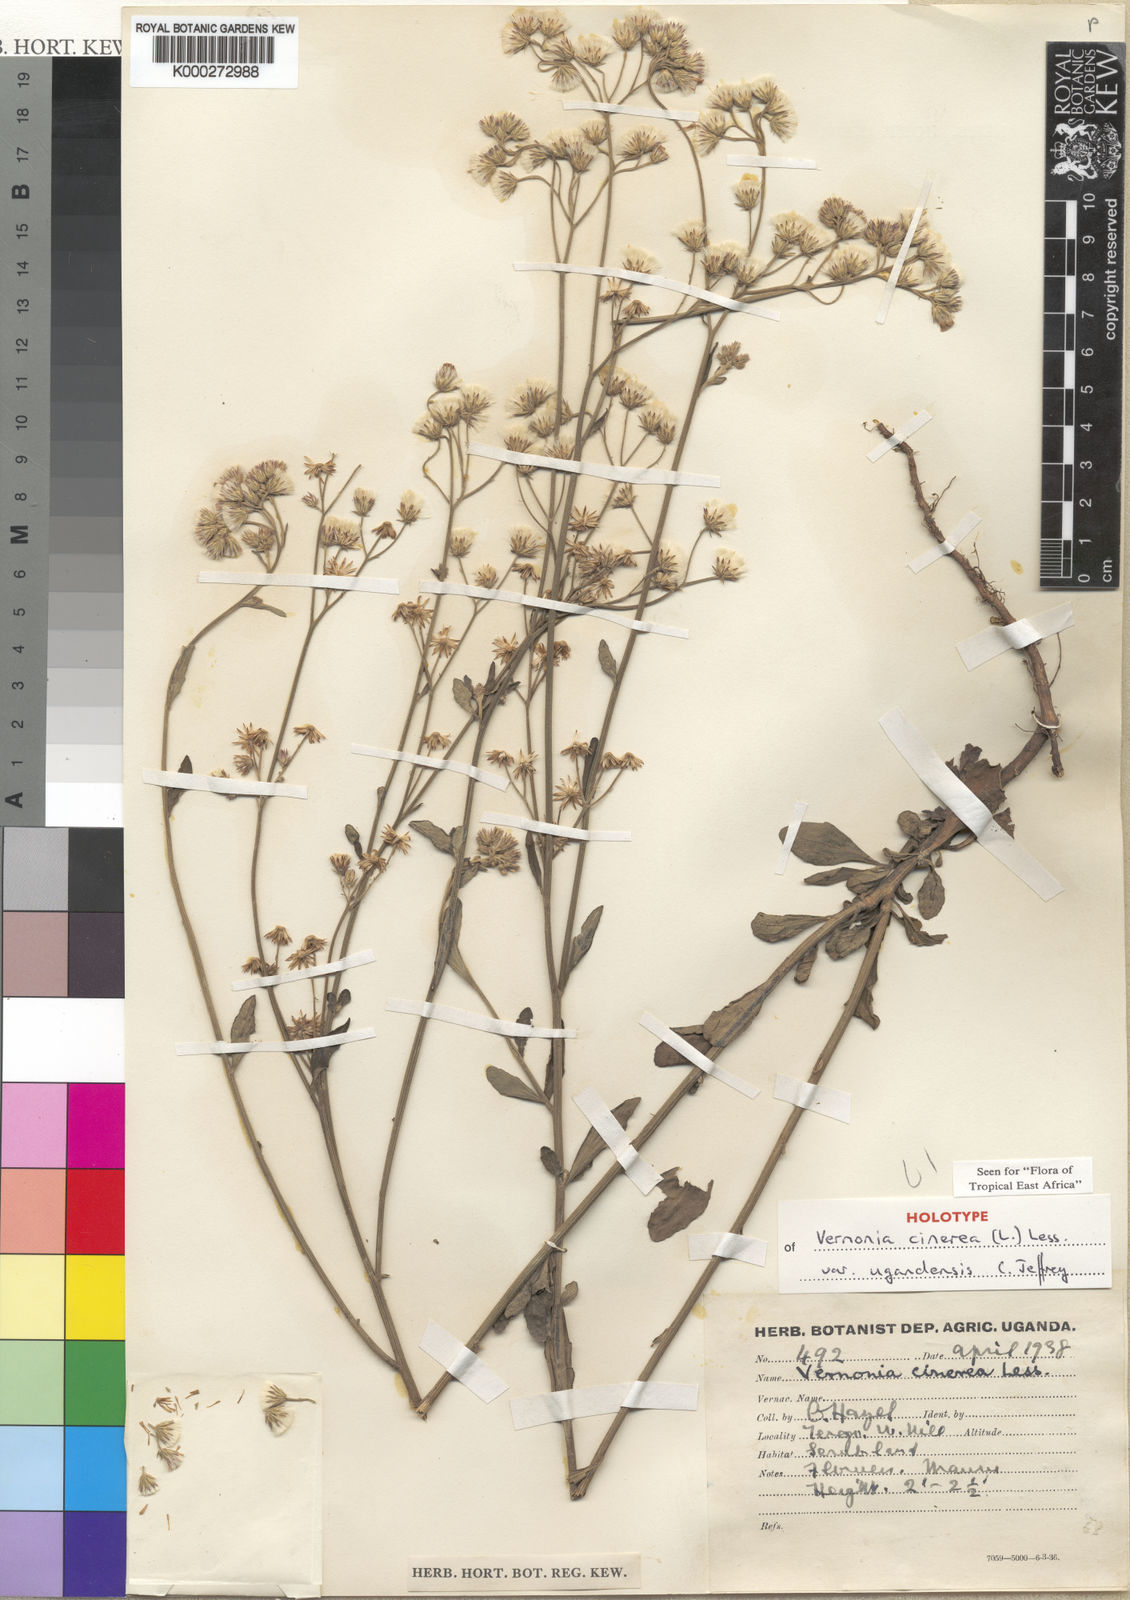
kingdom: Plantae
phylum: Tracheophyta
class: Magnoliopsida
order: Asterales
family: Asteraceae
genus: Cyanthillium
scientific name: Cyanthillium cinereum
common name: Little ironweed
